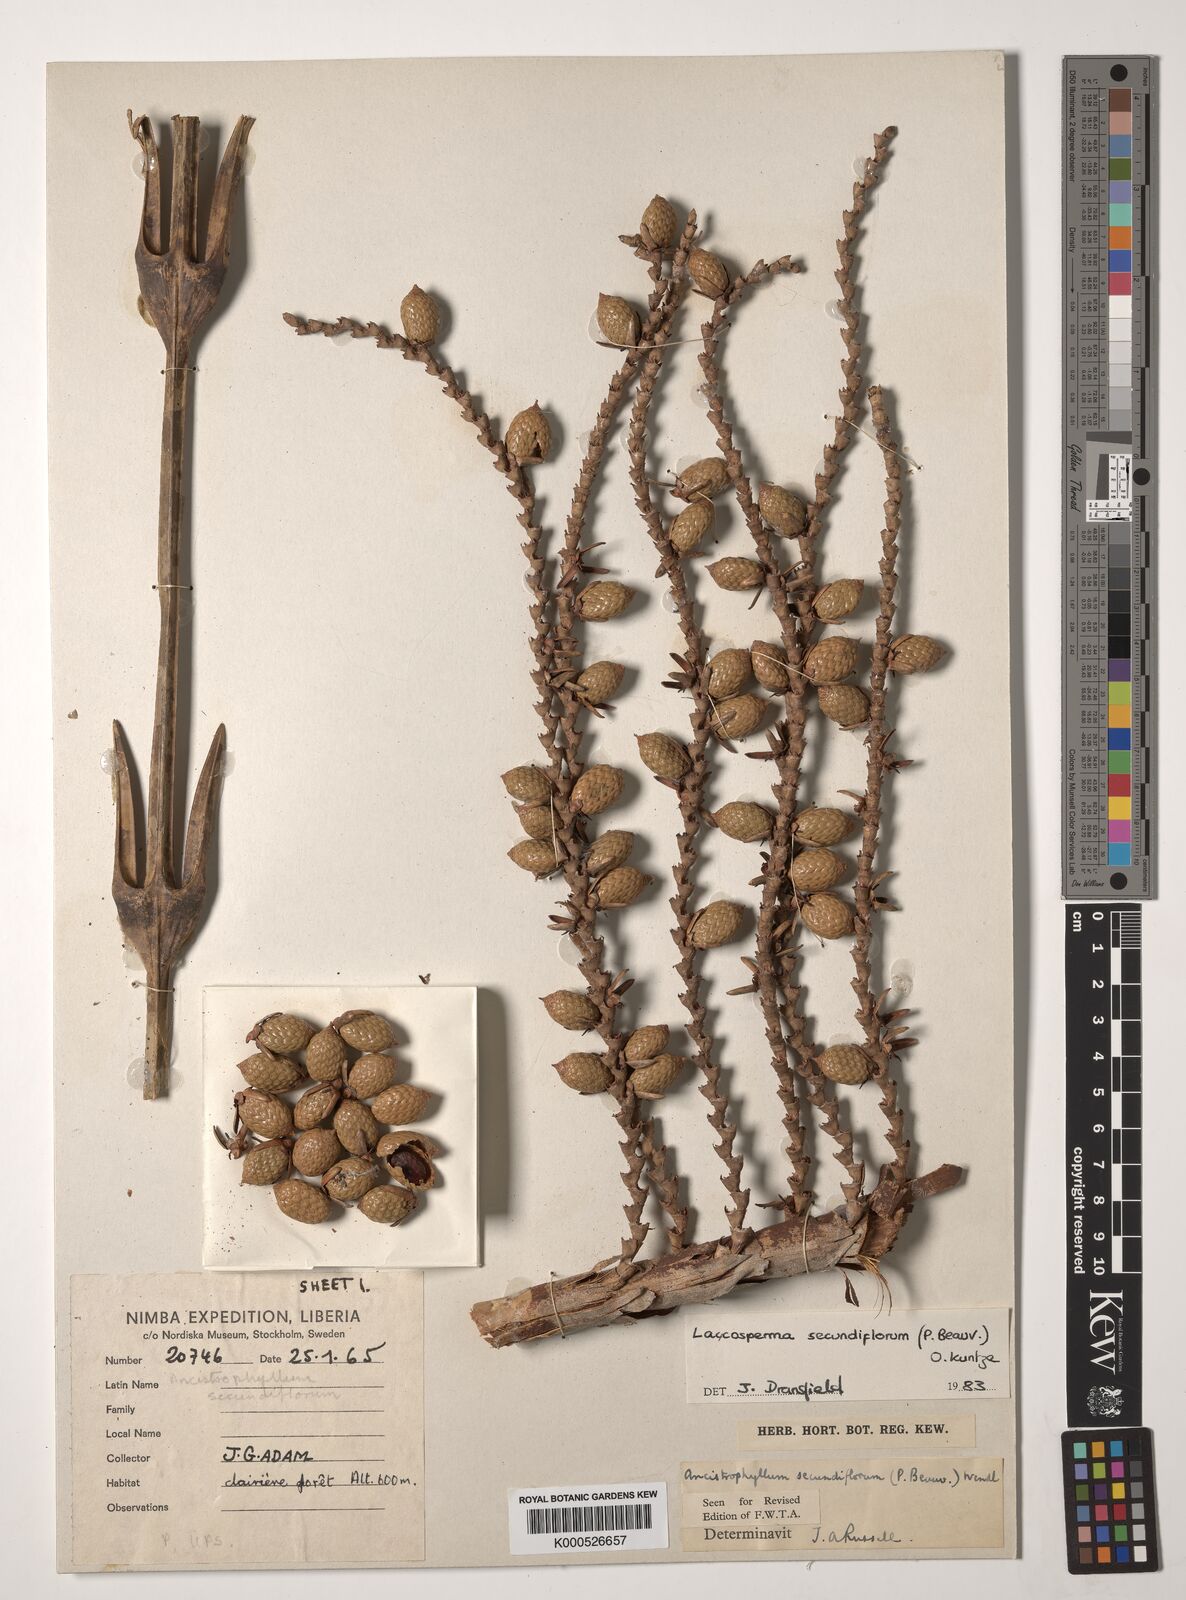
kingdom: Plantae
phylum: Tracheophyta
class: Liliopsida
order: Arecales
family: Arecaceae
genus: Laccosperma
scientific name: Laccosperma secundiflorum
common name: Rattan
